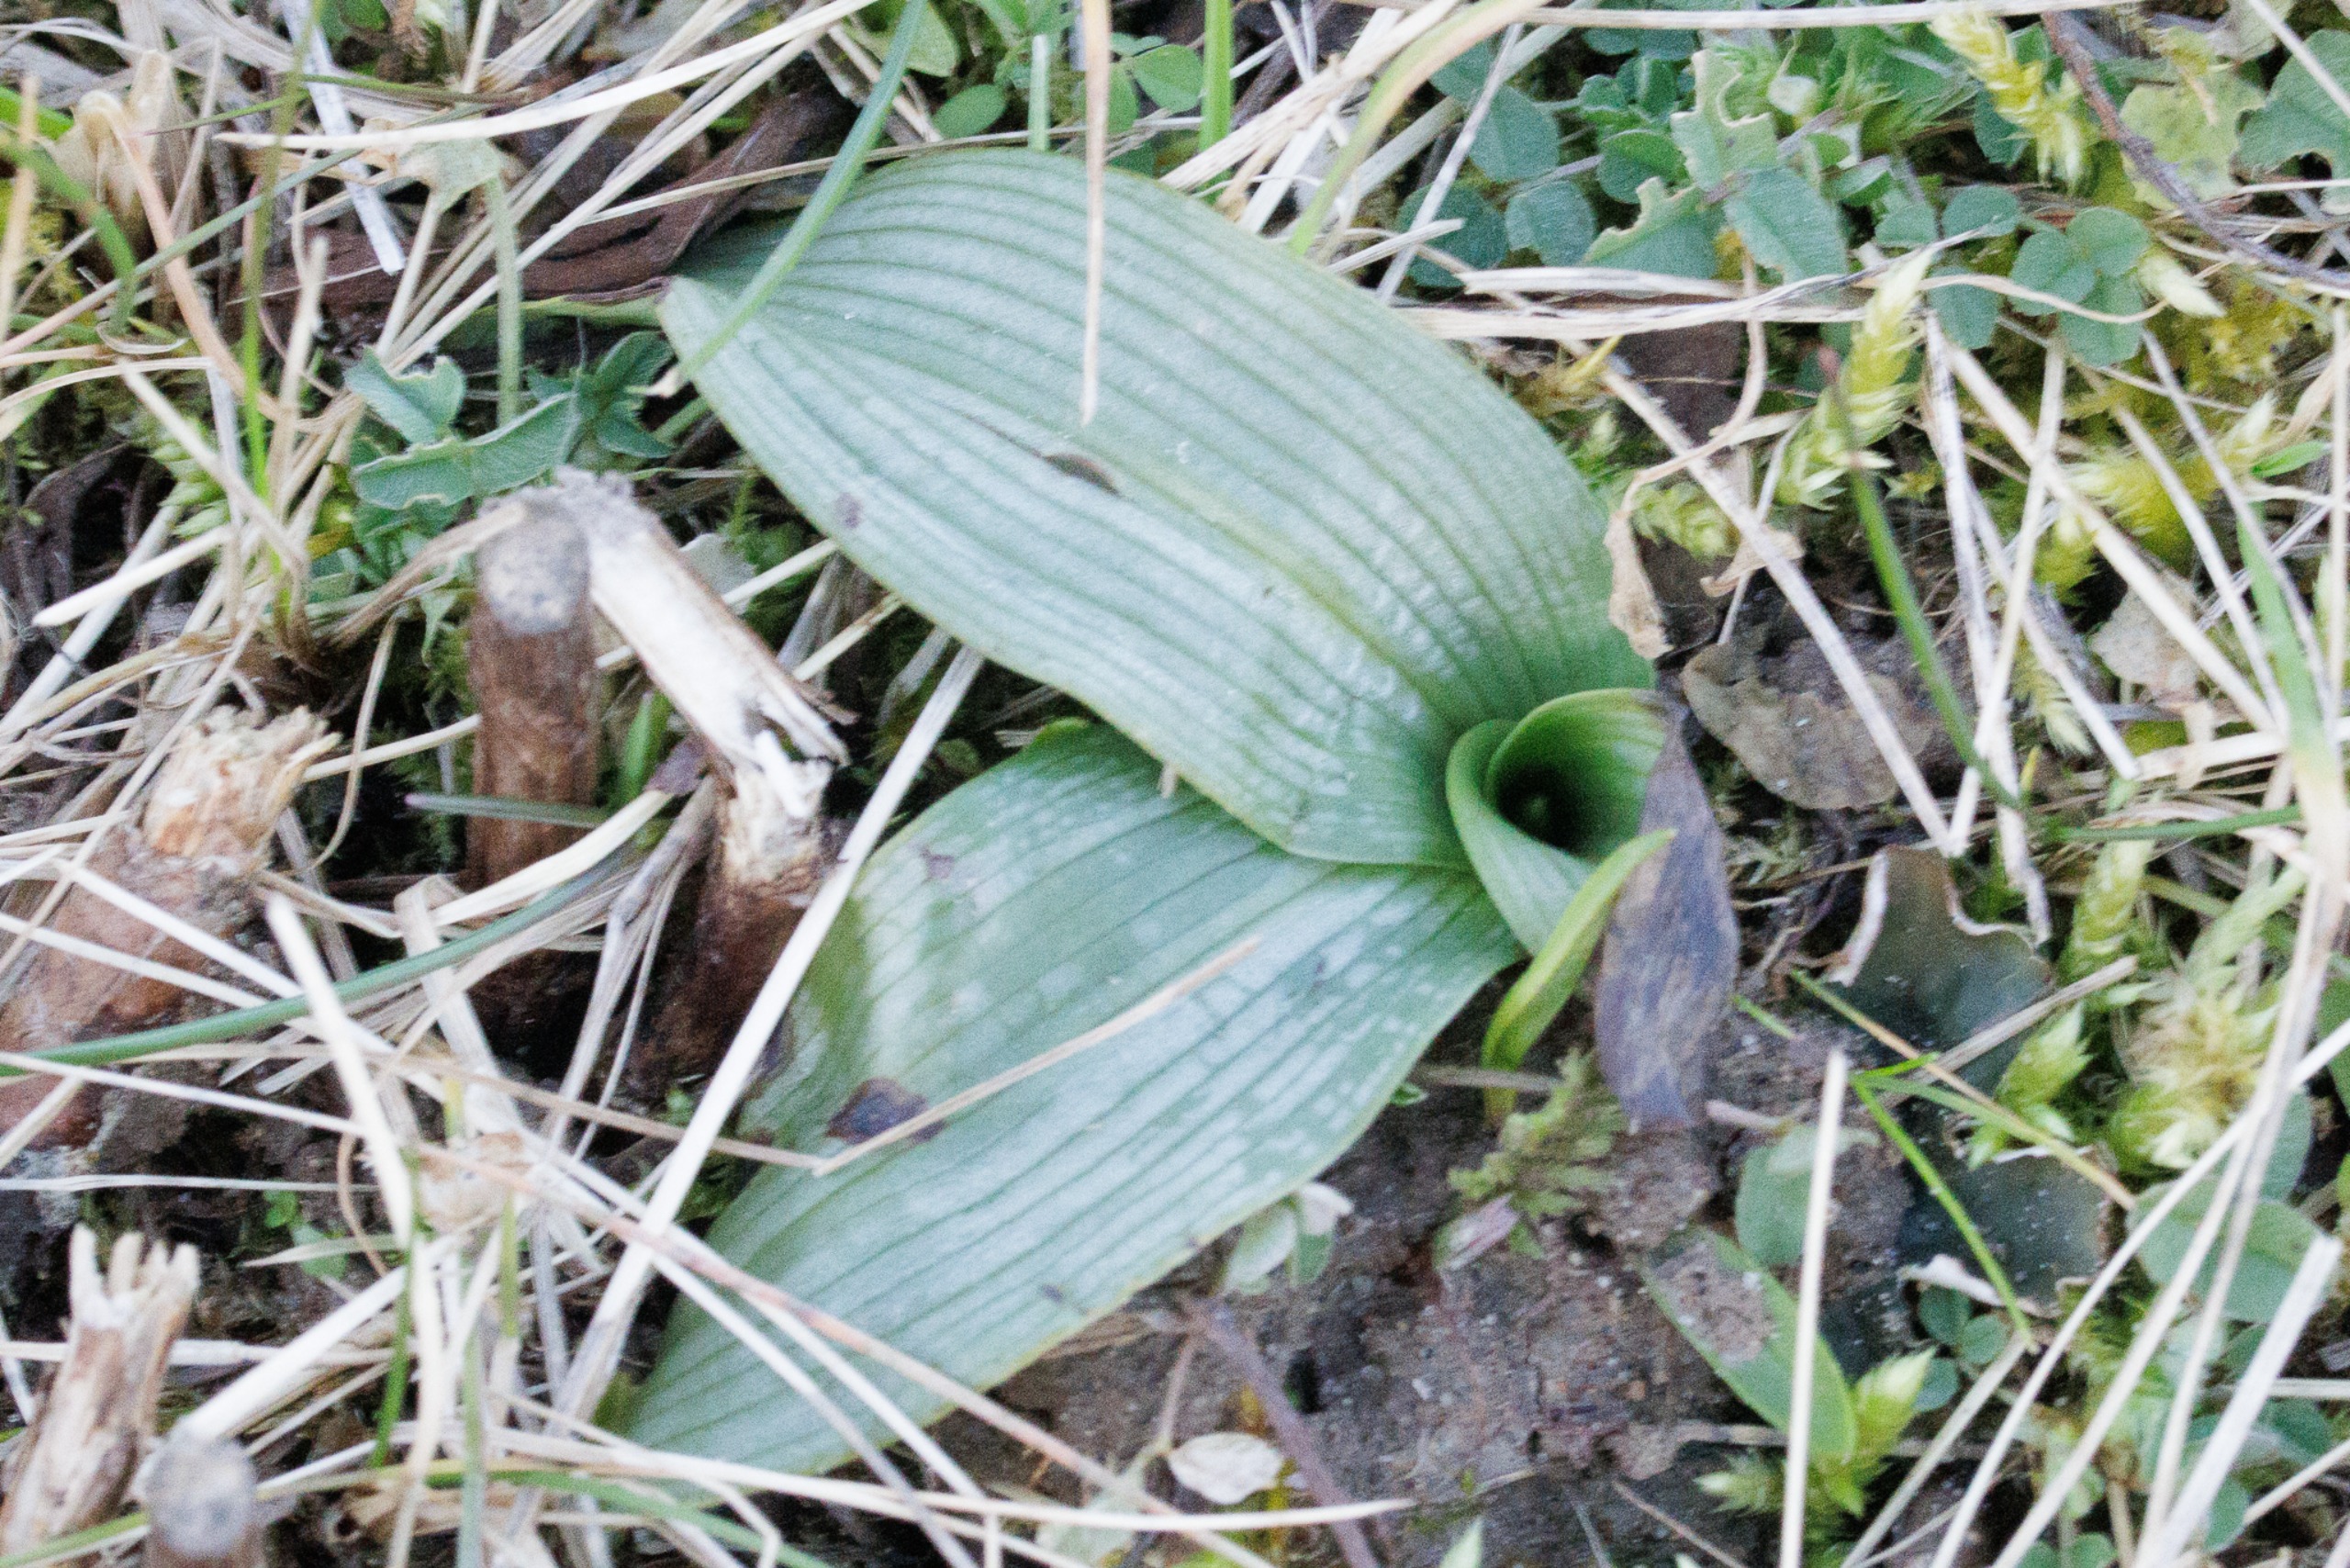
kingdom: Plantae
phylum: Tracheophyta
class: Liliopsida
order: Asparagales
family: Orchidaceae
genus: Ophrys
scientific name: Ophrys apifera
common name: Biblomst
